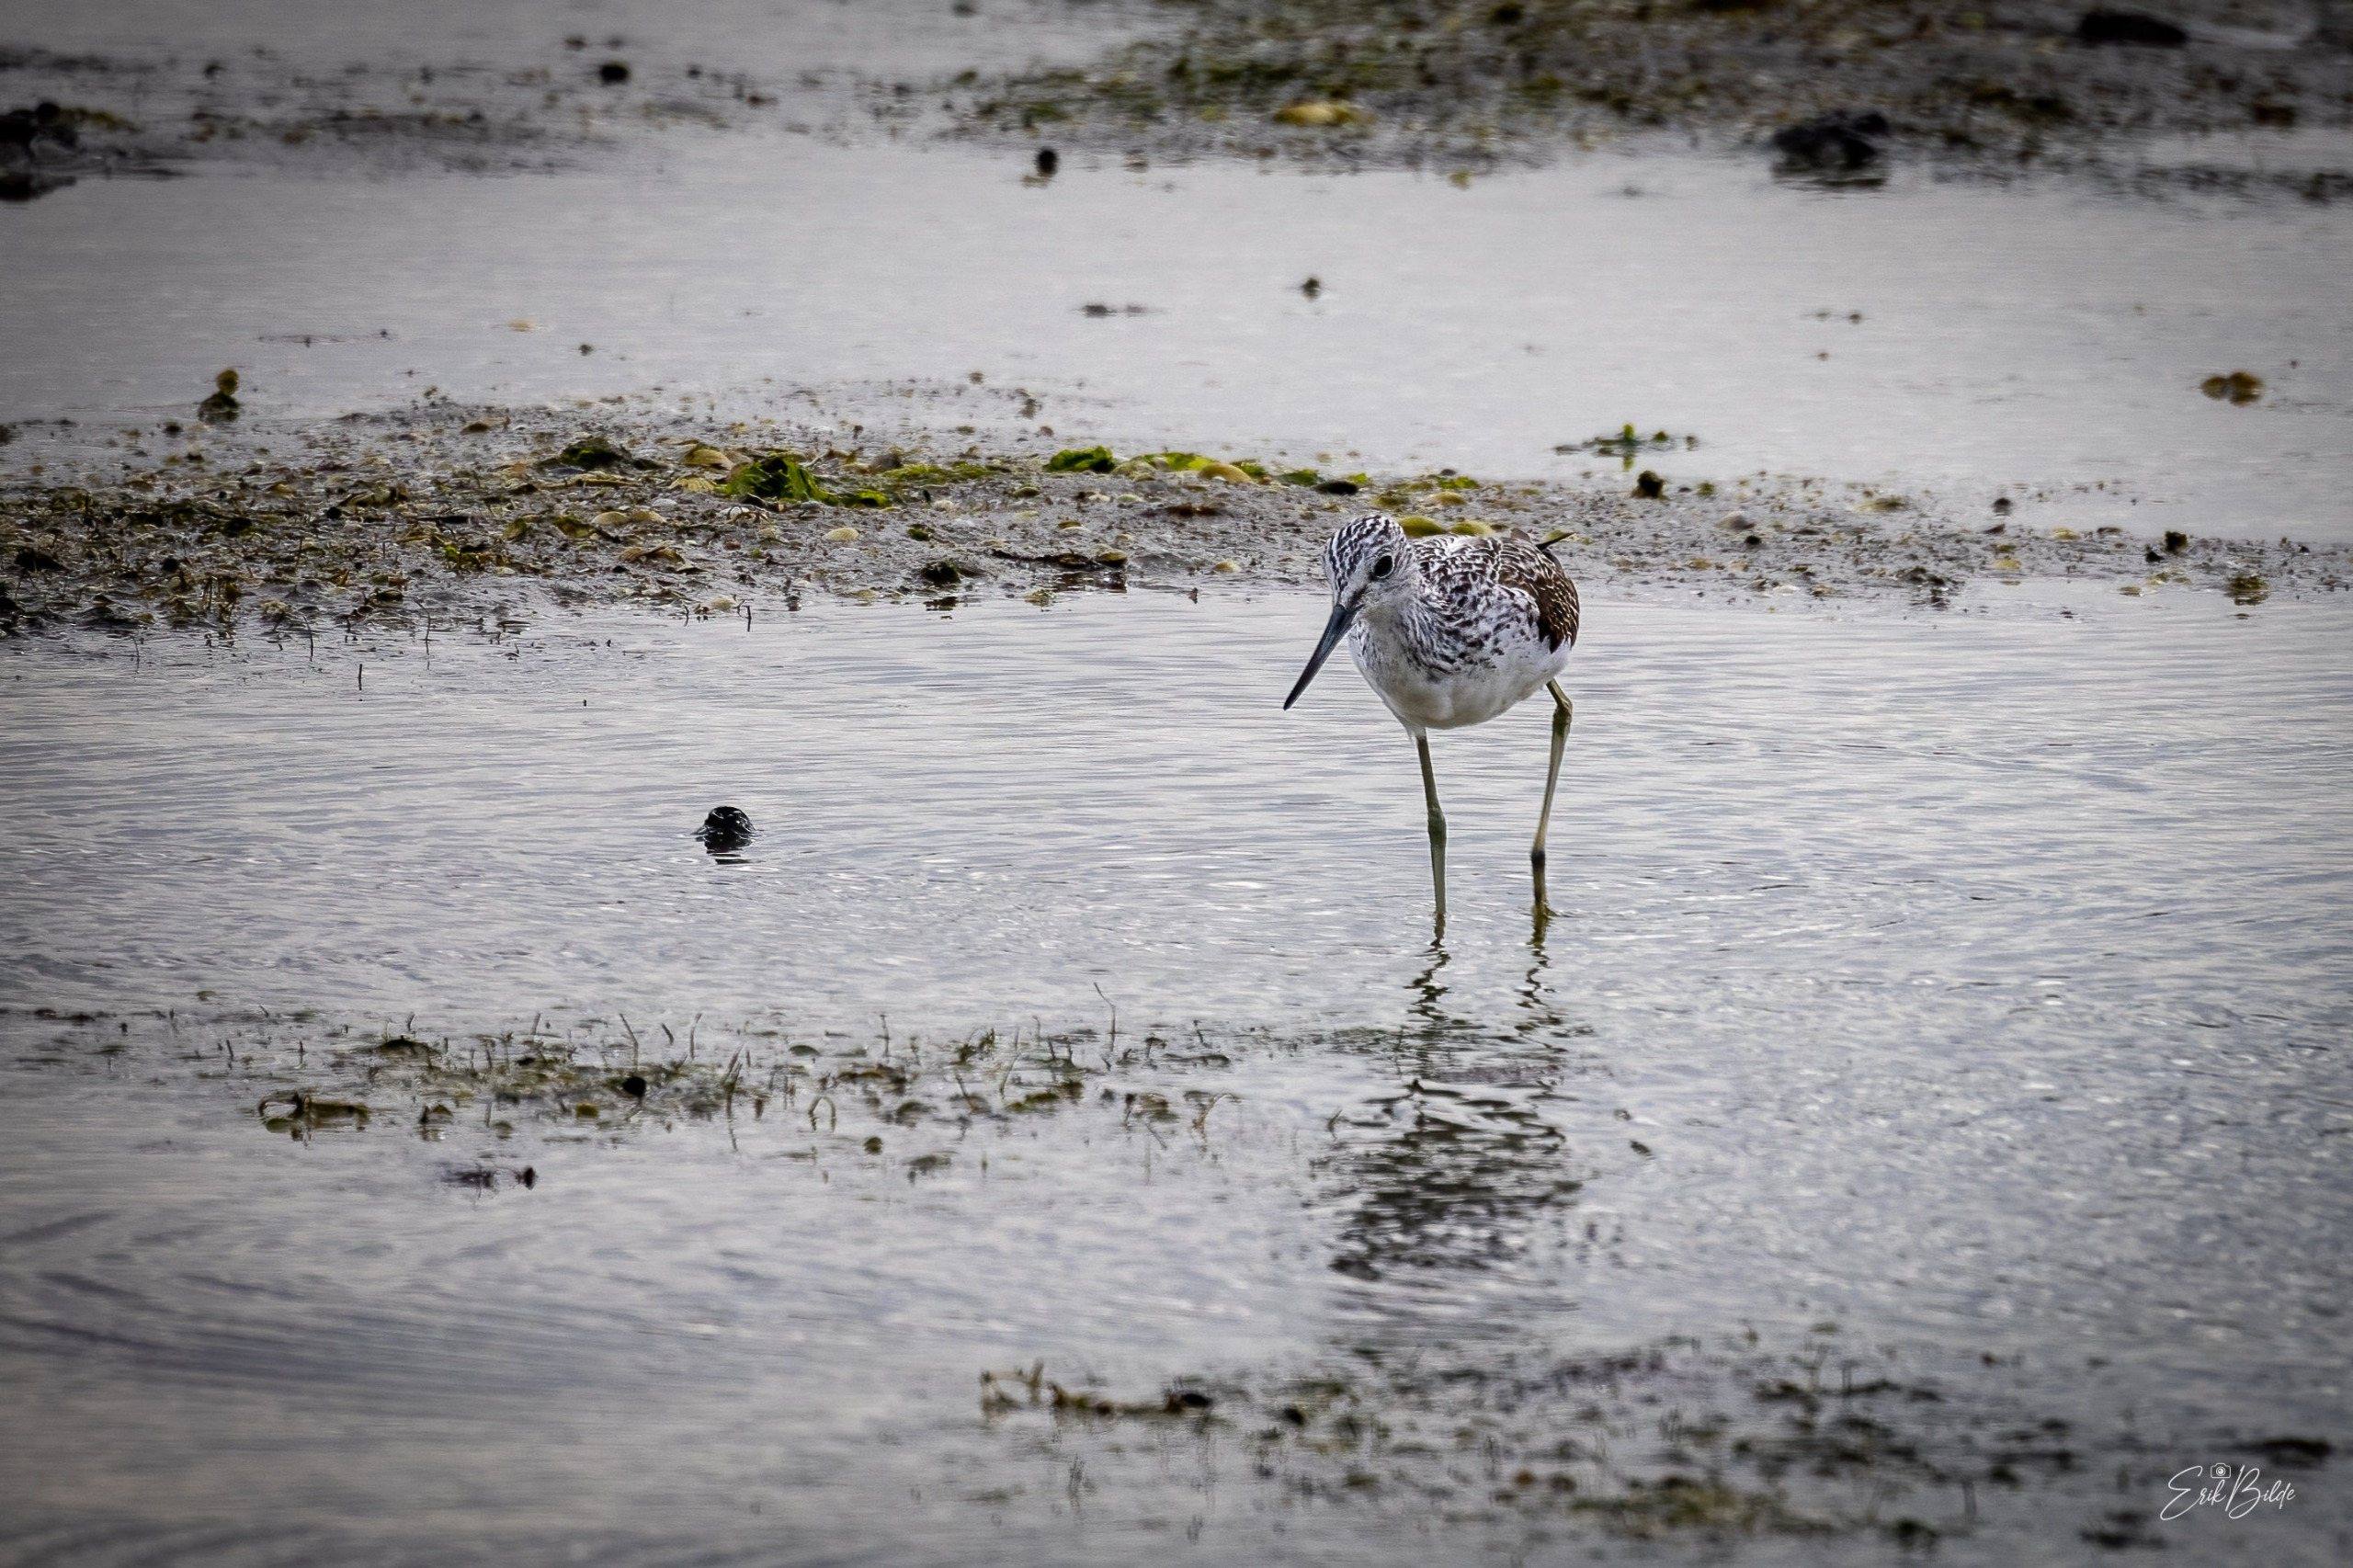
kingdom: Animalia
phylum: Chordata
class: Aves
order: Charadriiformes
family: Scolopacidae
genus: Tringa
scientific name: Tringa nebularia
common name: Hvidklire
